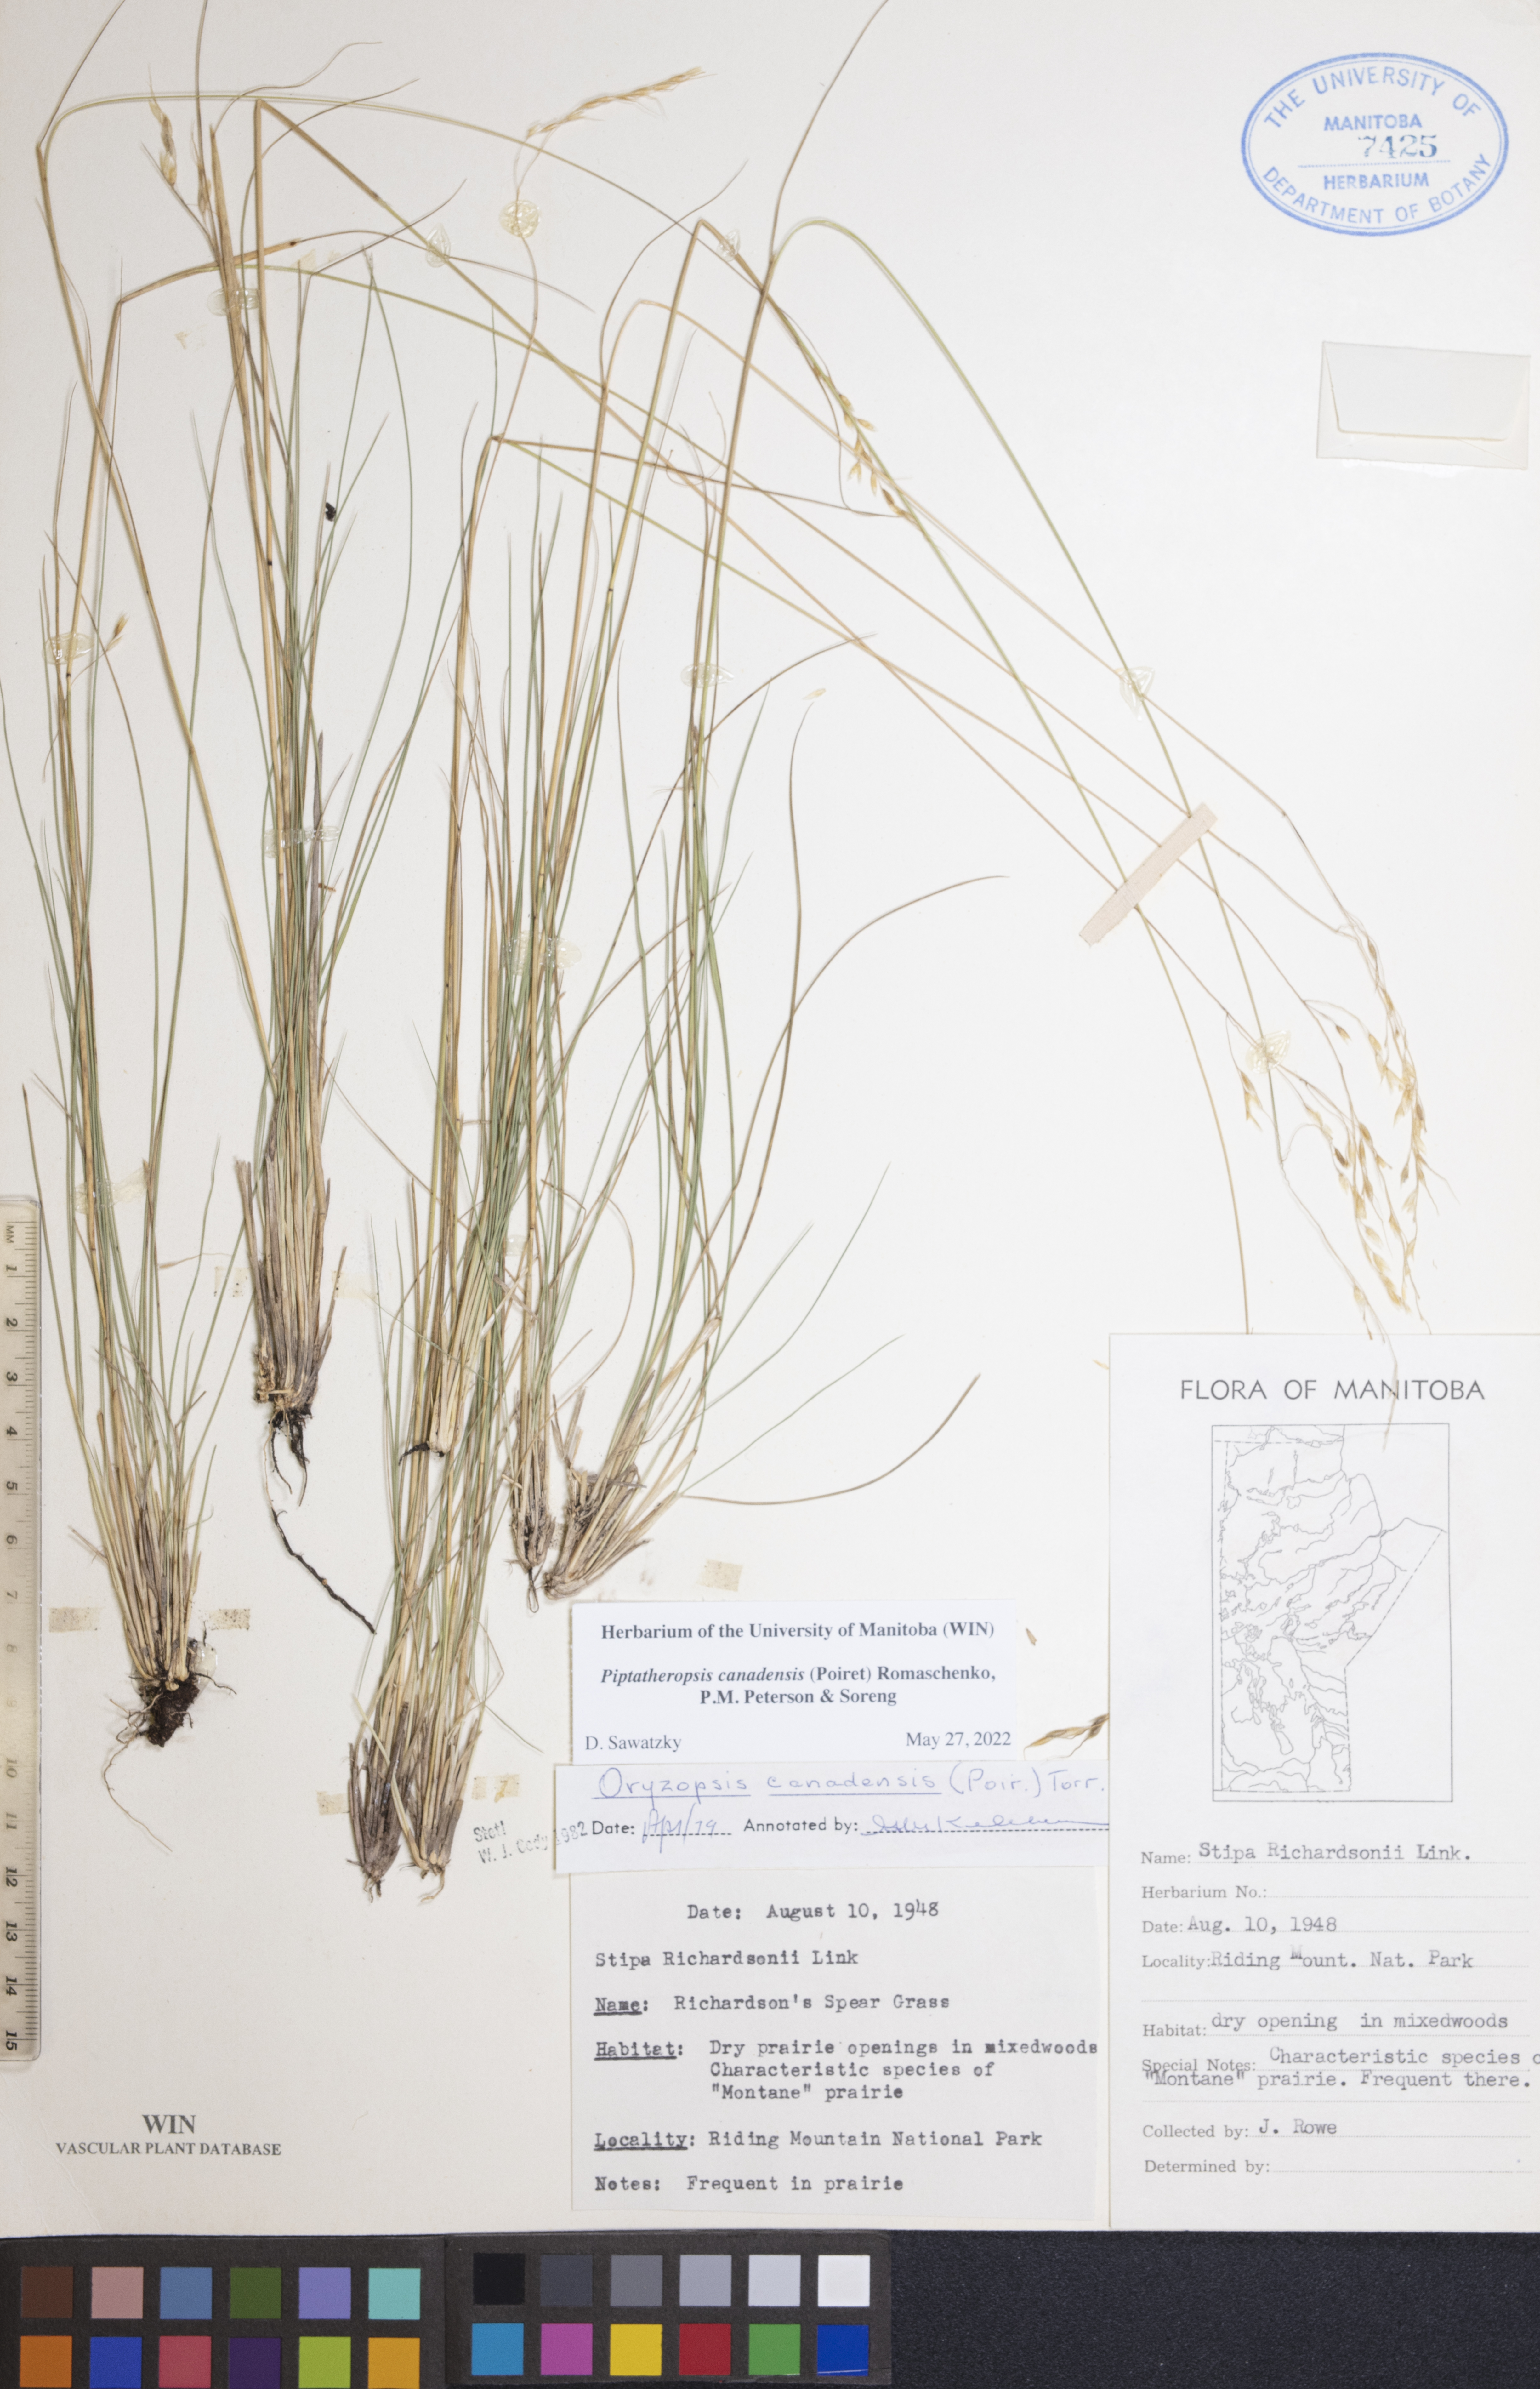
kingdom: Plantae
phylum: Tracheophyta
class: Liliopsida
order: Poales
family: Poaceae
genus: Piptatheropsis
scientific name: Piptatheropsis canadensis
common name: Canada mountain ricegrass
